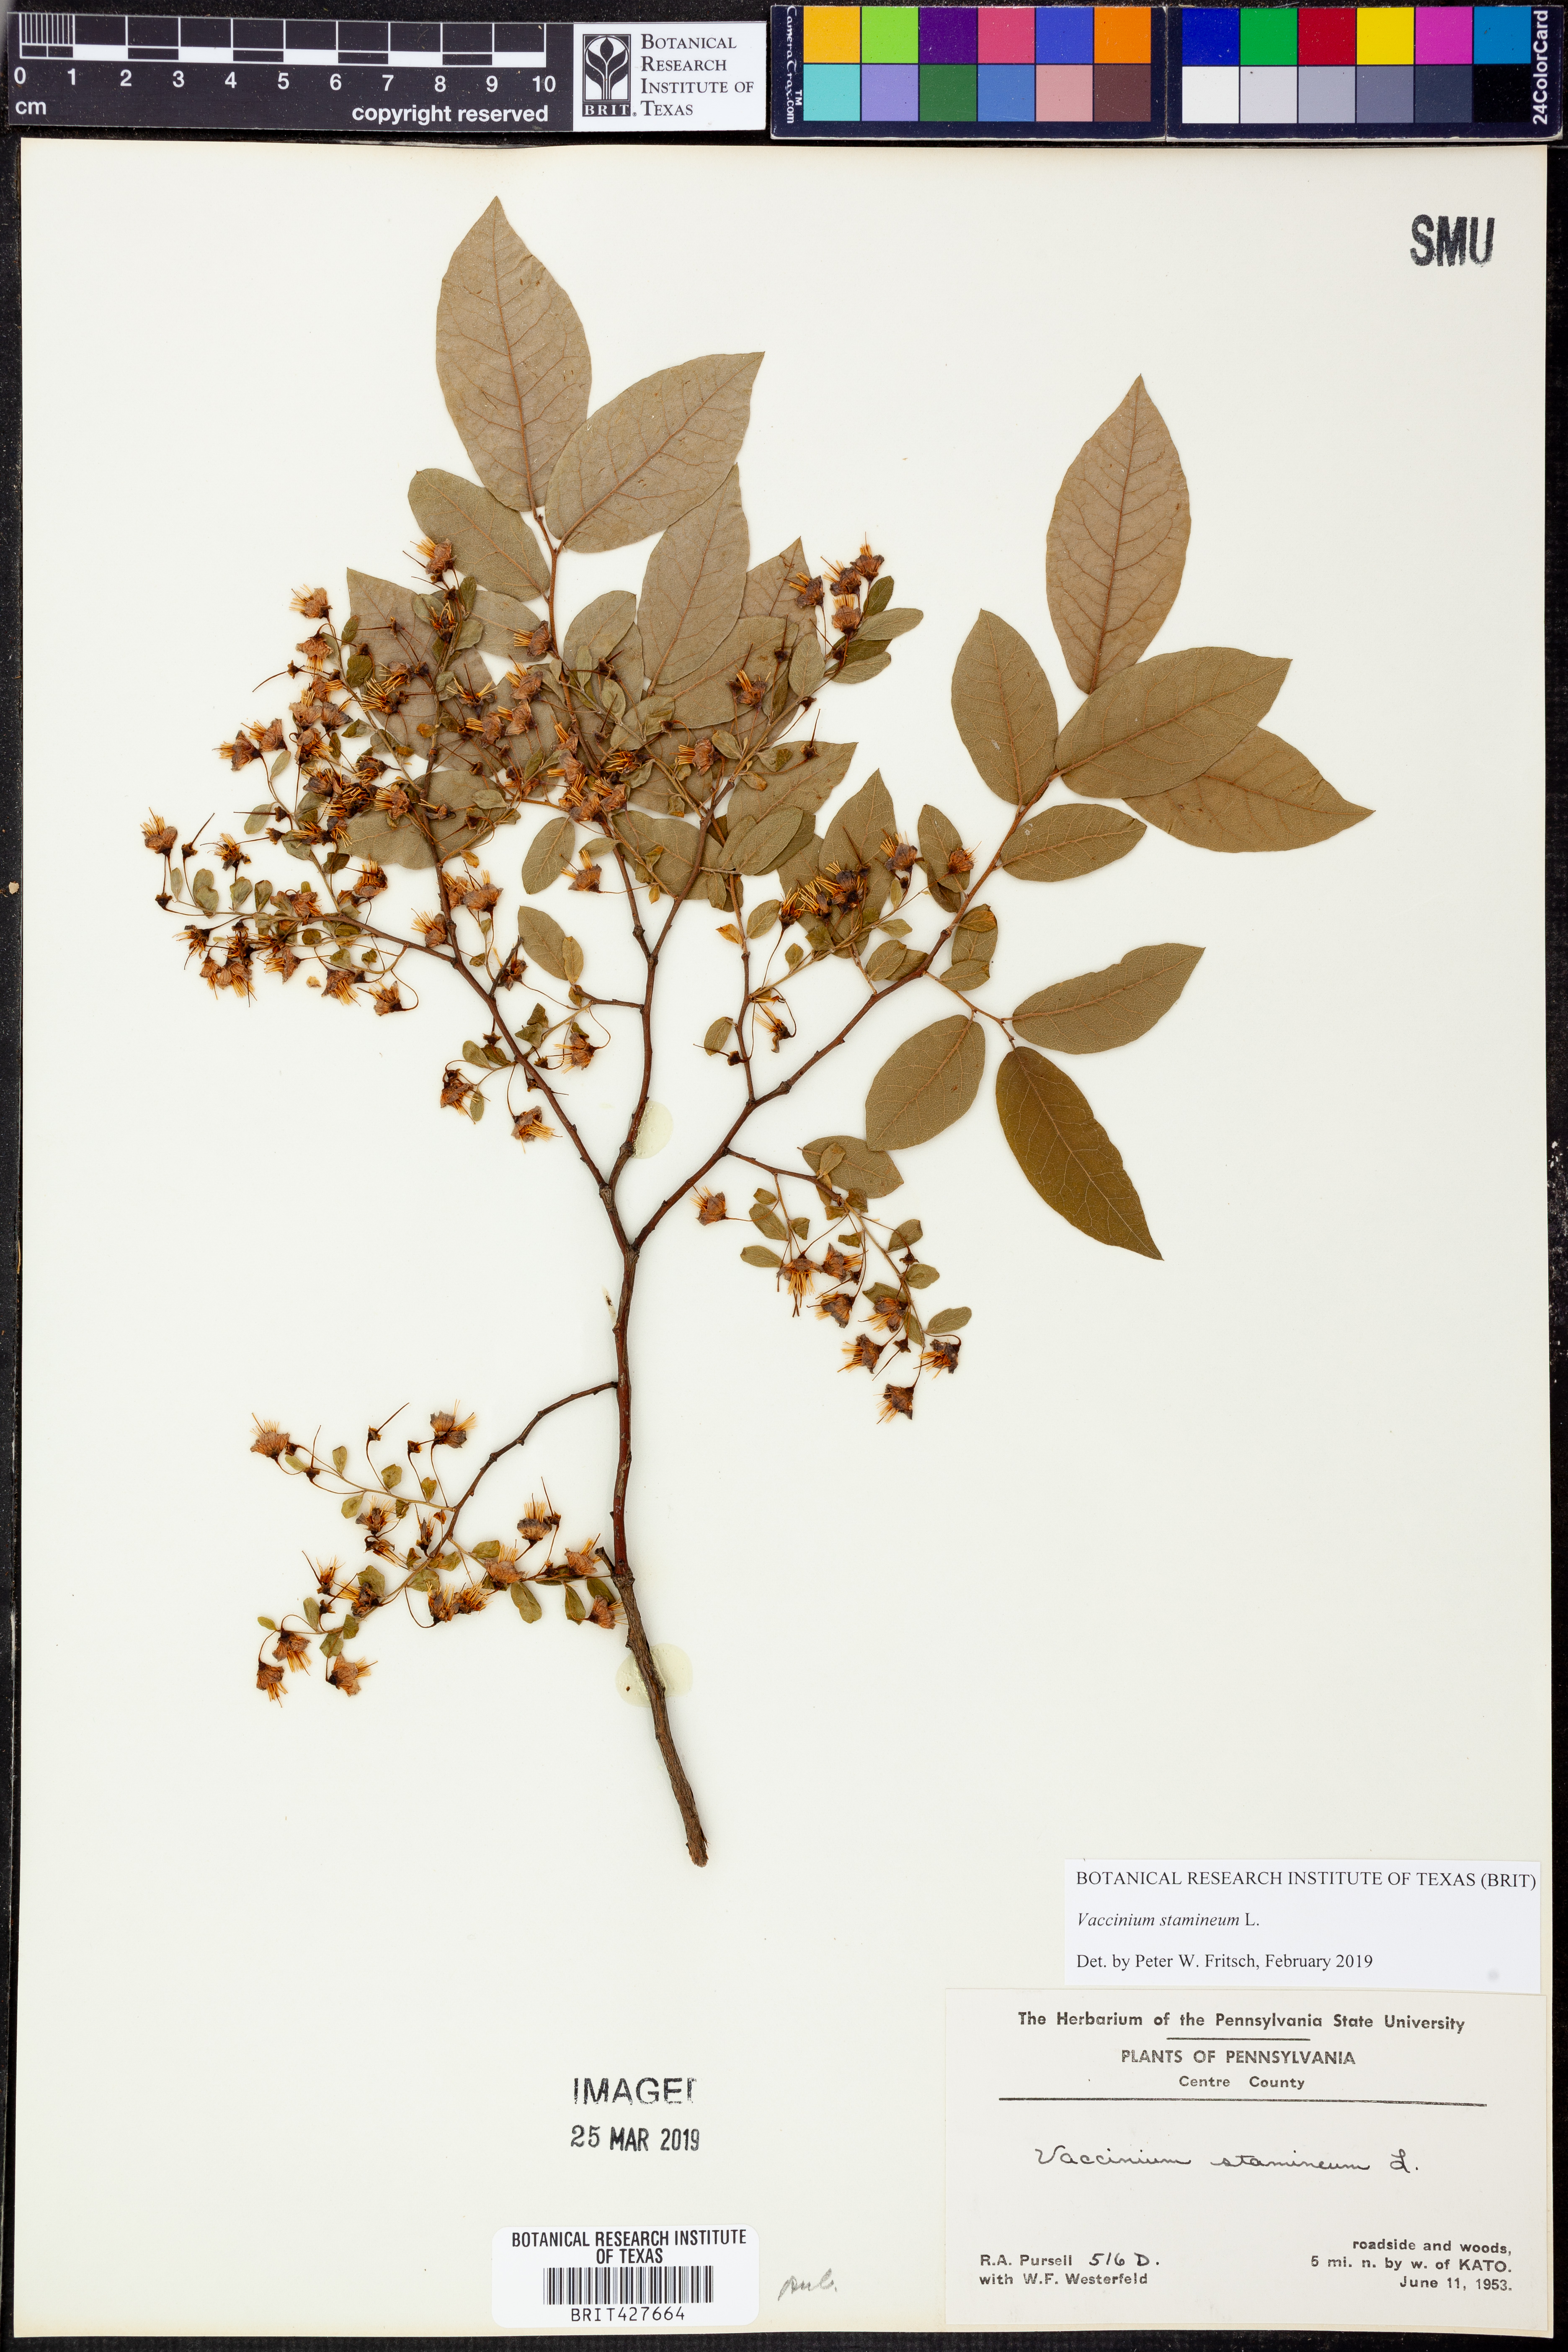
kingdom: Plantae
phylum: Tracheophyta
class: Magnoliopsida
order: Ericales
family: Ericaceae
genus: Vaccinium
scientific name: Vaccinium stamineum
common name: Deerberry
